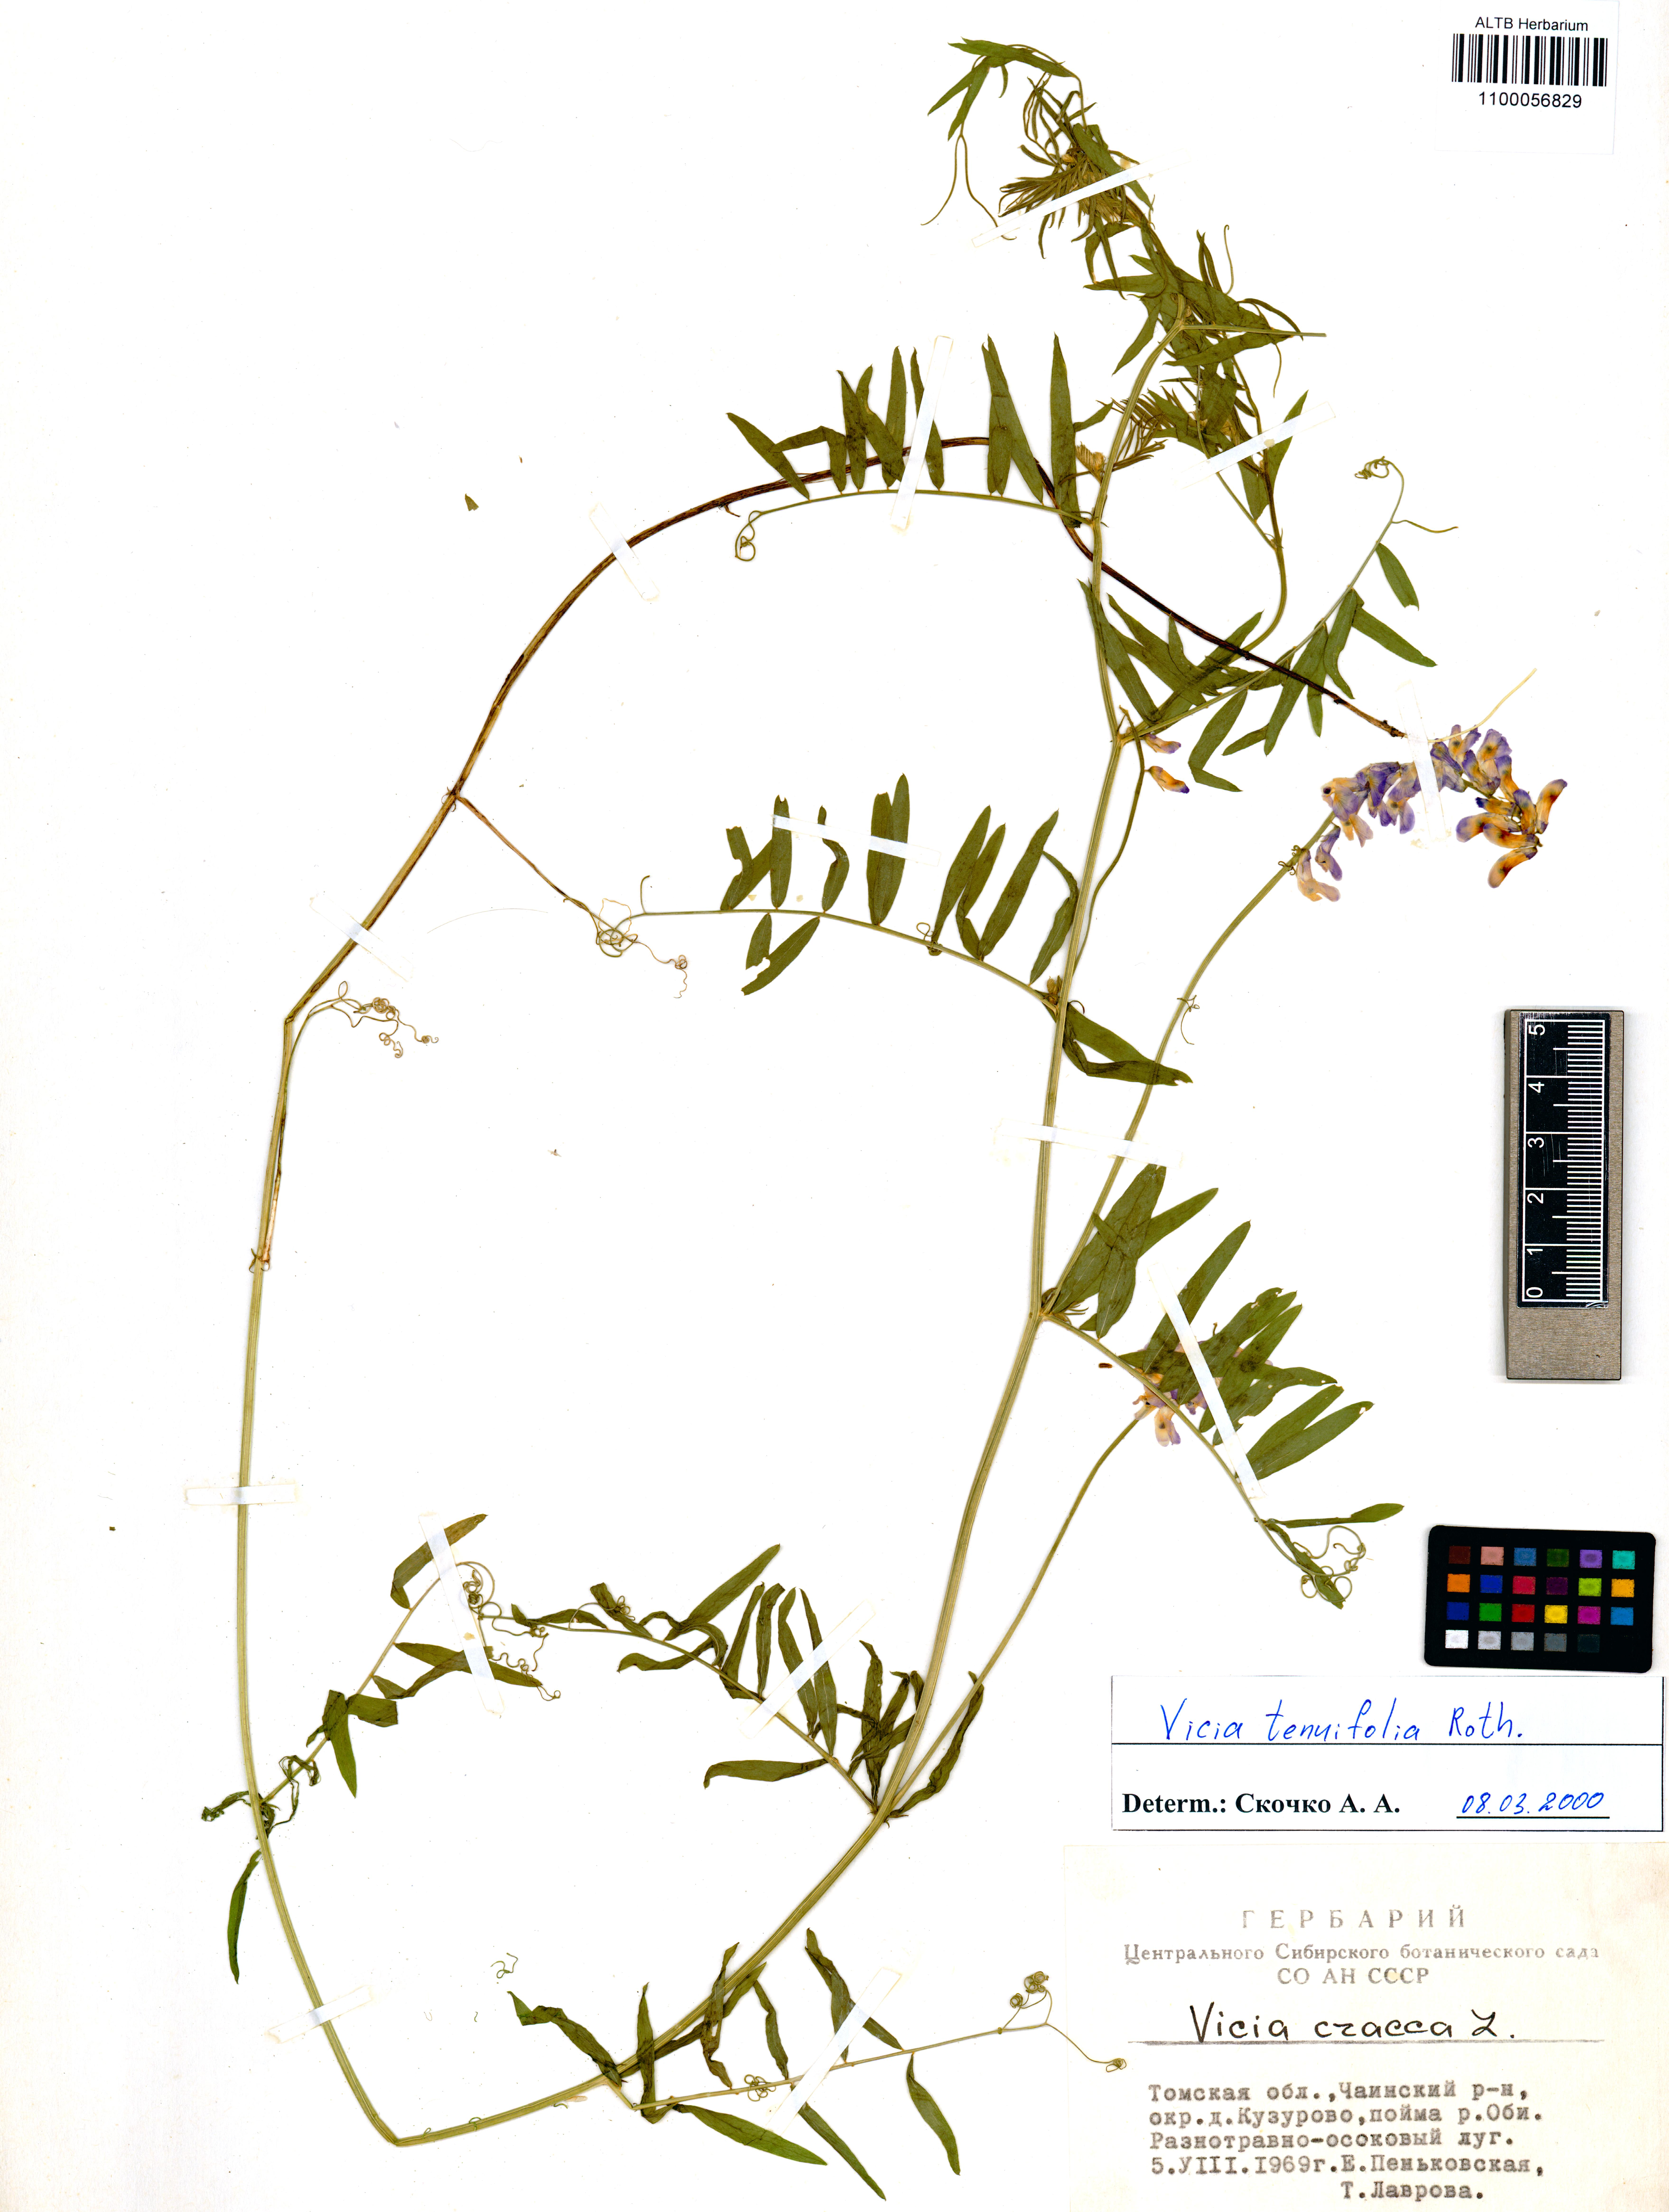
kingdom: Plantae
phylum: Tracheophyta
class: Magnoliopsida
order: Fabales
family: Fabaceae
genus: Vicia
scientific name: Vicia tenuifolia
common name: Fine-leaved vetch
